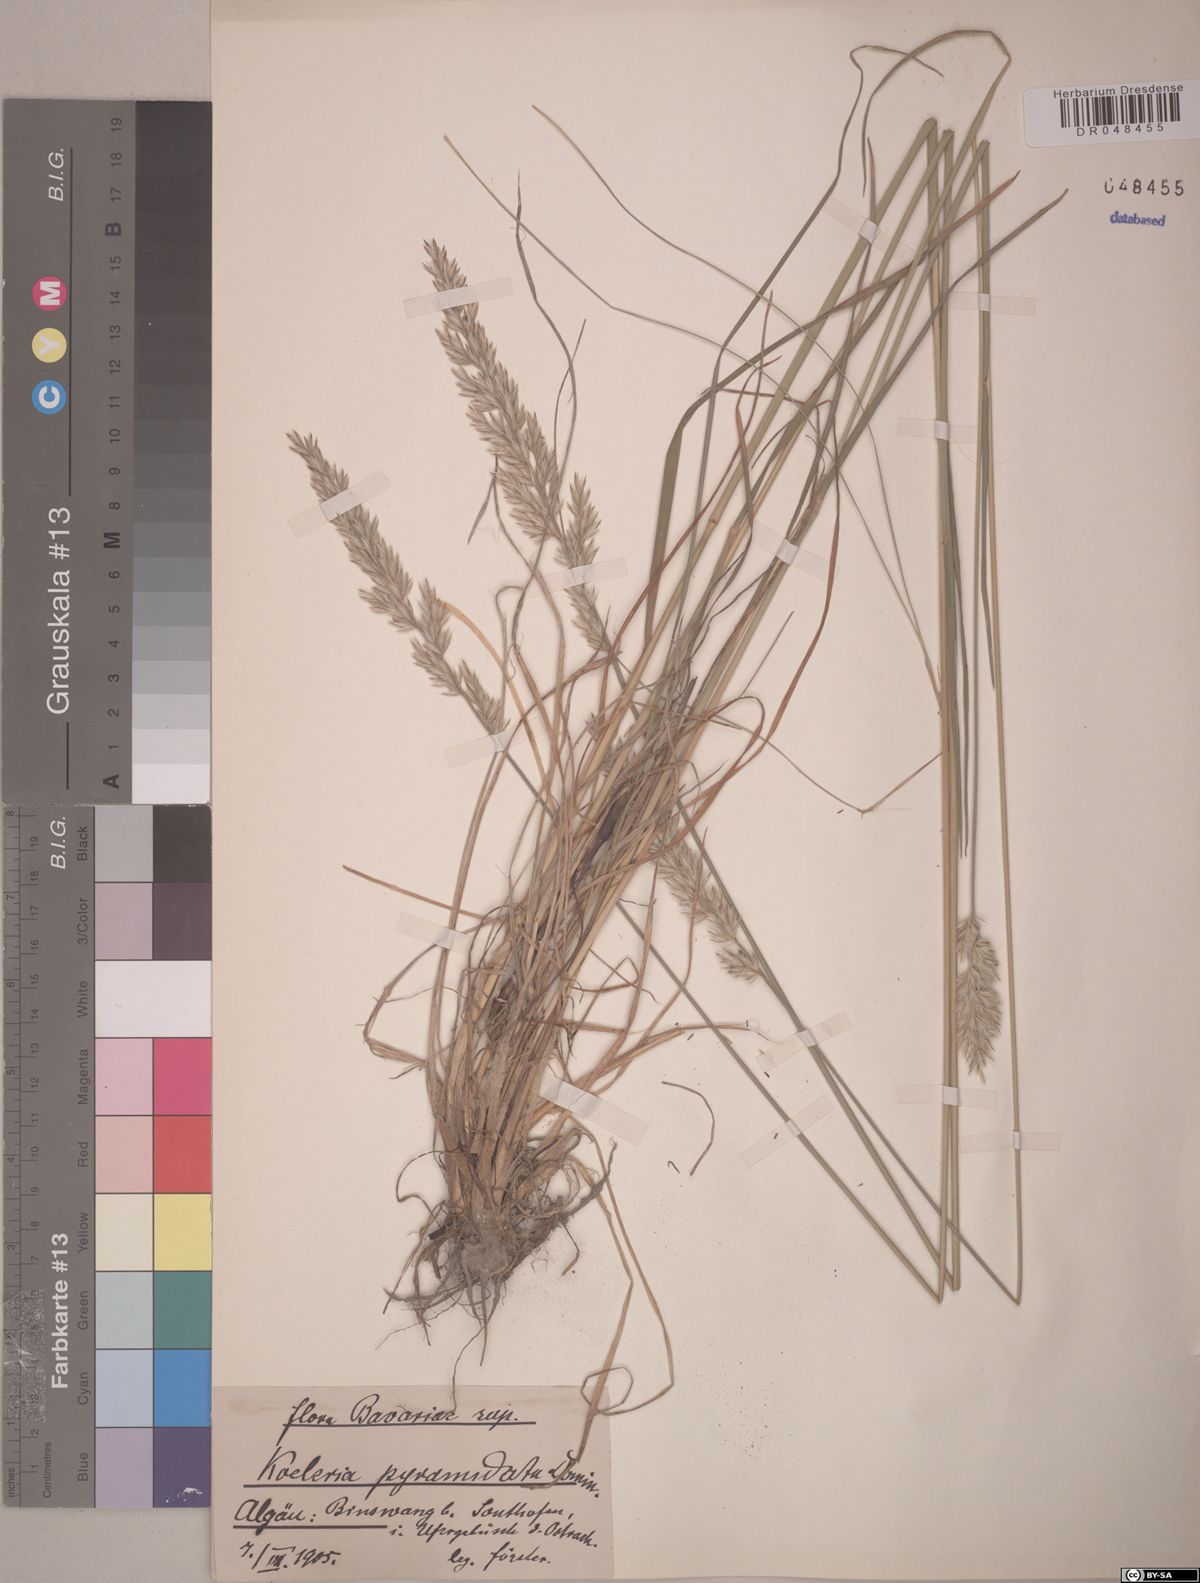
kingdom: Plantae
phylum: Tracheophyta
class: Liliopsida
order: Poales
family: Poaceae
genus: Koeleria
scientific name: Koeleria pyramidata
